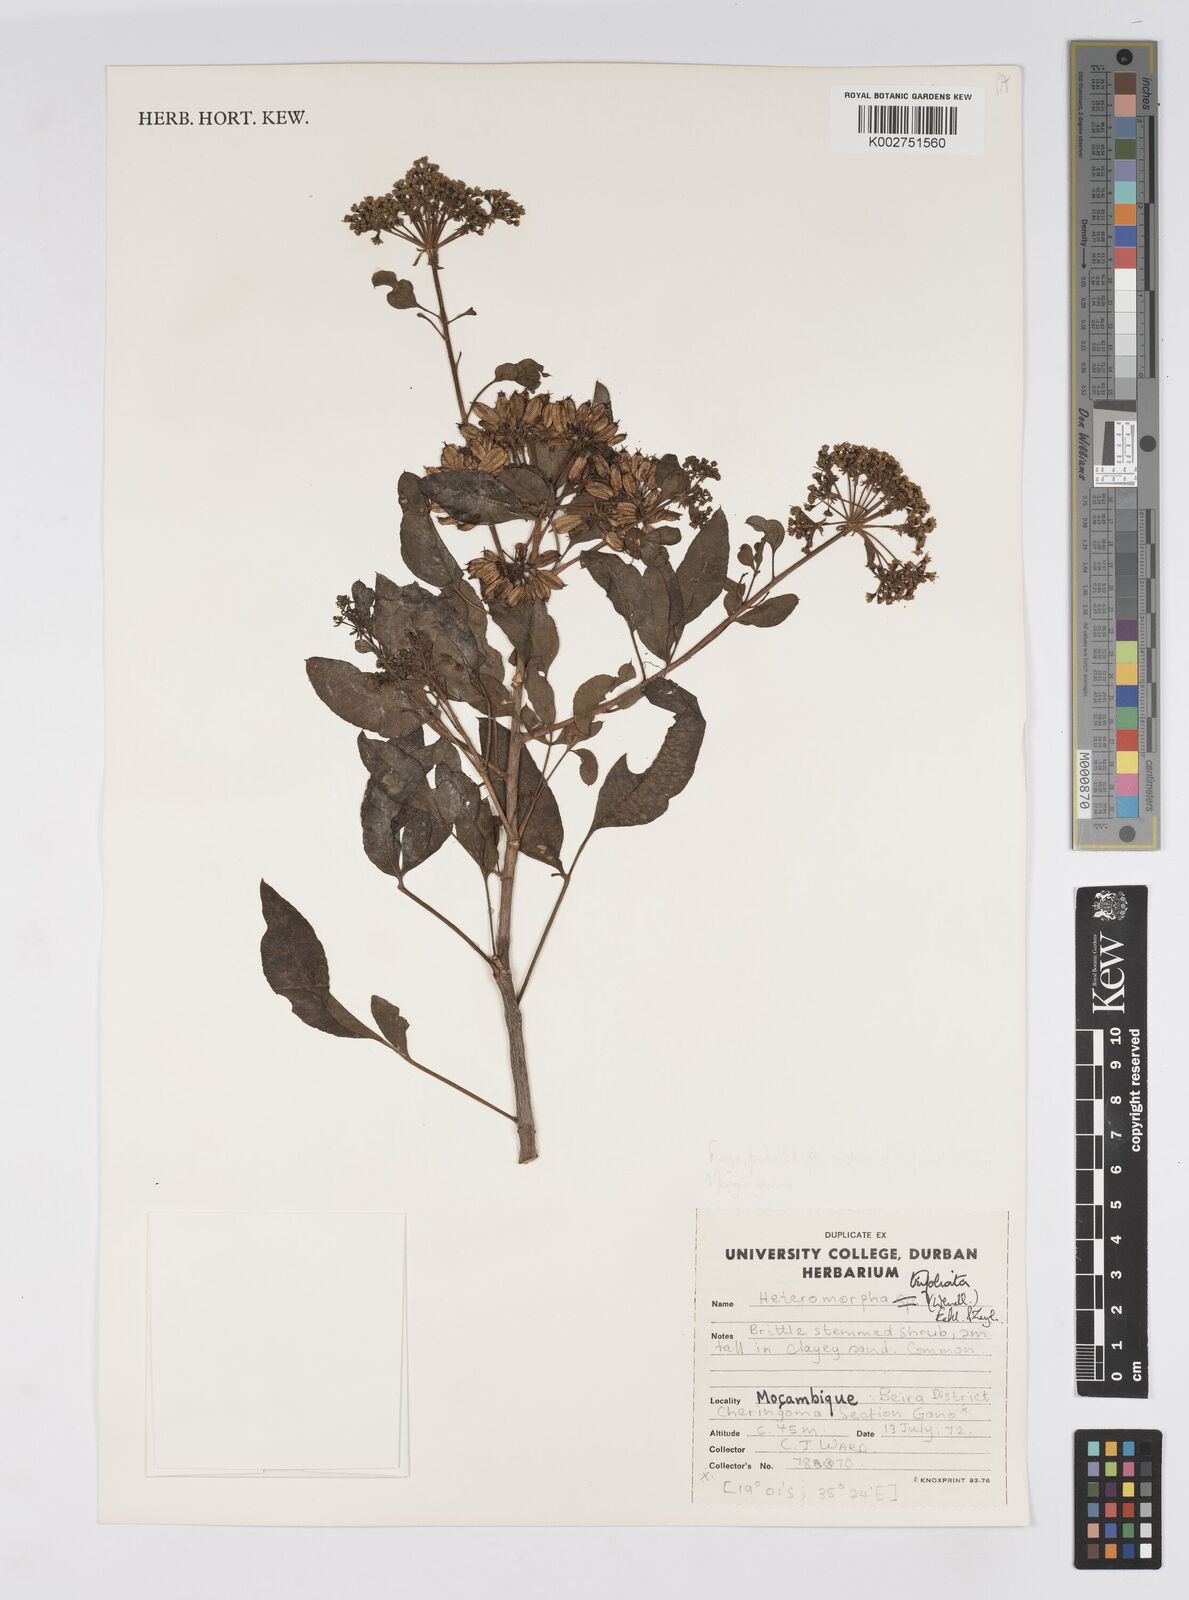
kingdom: Plantae
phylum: Tracheophyta
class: Magnoliopsida
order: Apiales
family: Apiaceae
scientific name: Apiaceae
